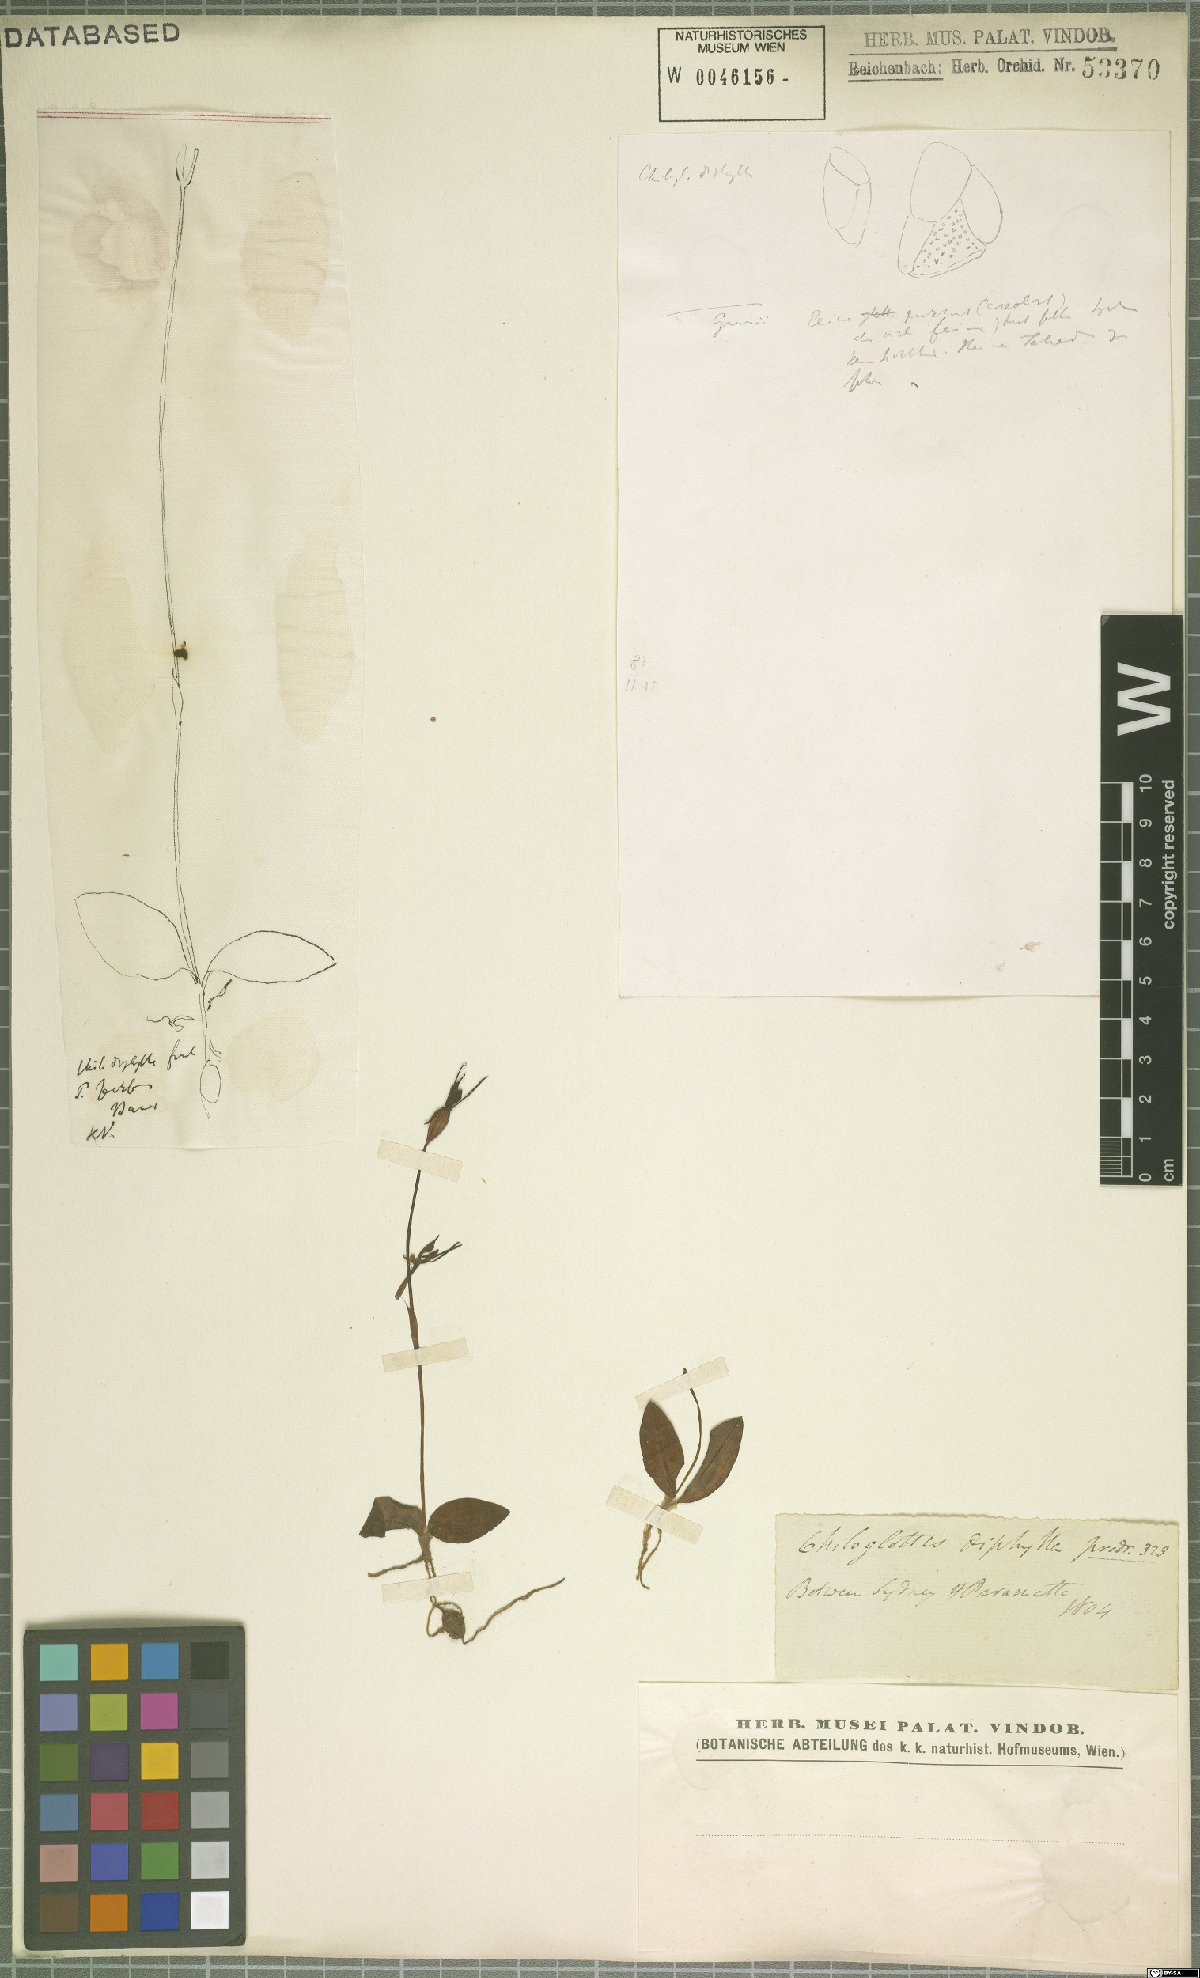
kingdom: Plantae
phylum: Tracheophyta
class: Liliopsida
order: Asparagales
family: Orchidaceae
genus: Chiloglottis
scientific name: Chiloglottis diphylla
